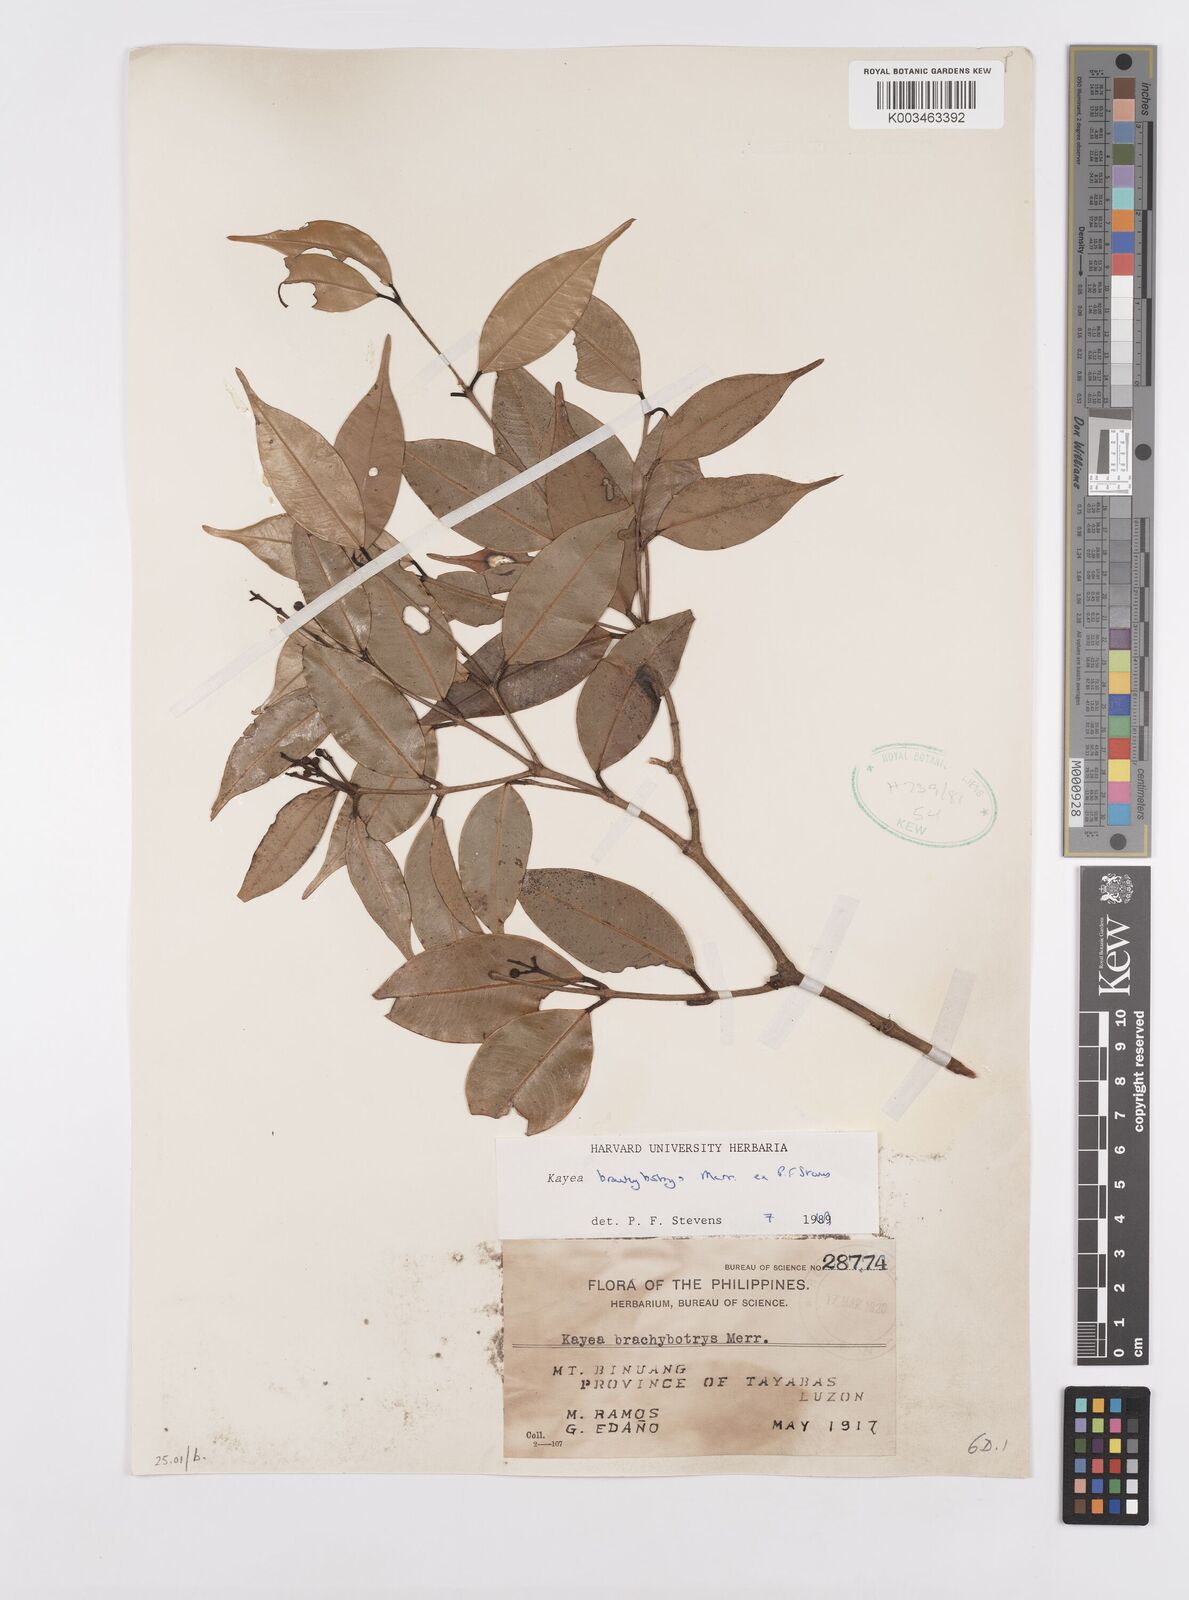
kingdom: Plantae
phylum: Tracheophyta
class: Magnoliopsida
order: Malpighiales
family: Calophyllaceae
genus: Kayea
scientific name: Kayea
